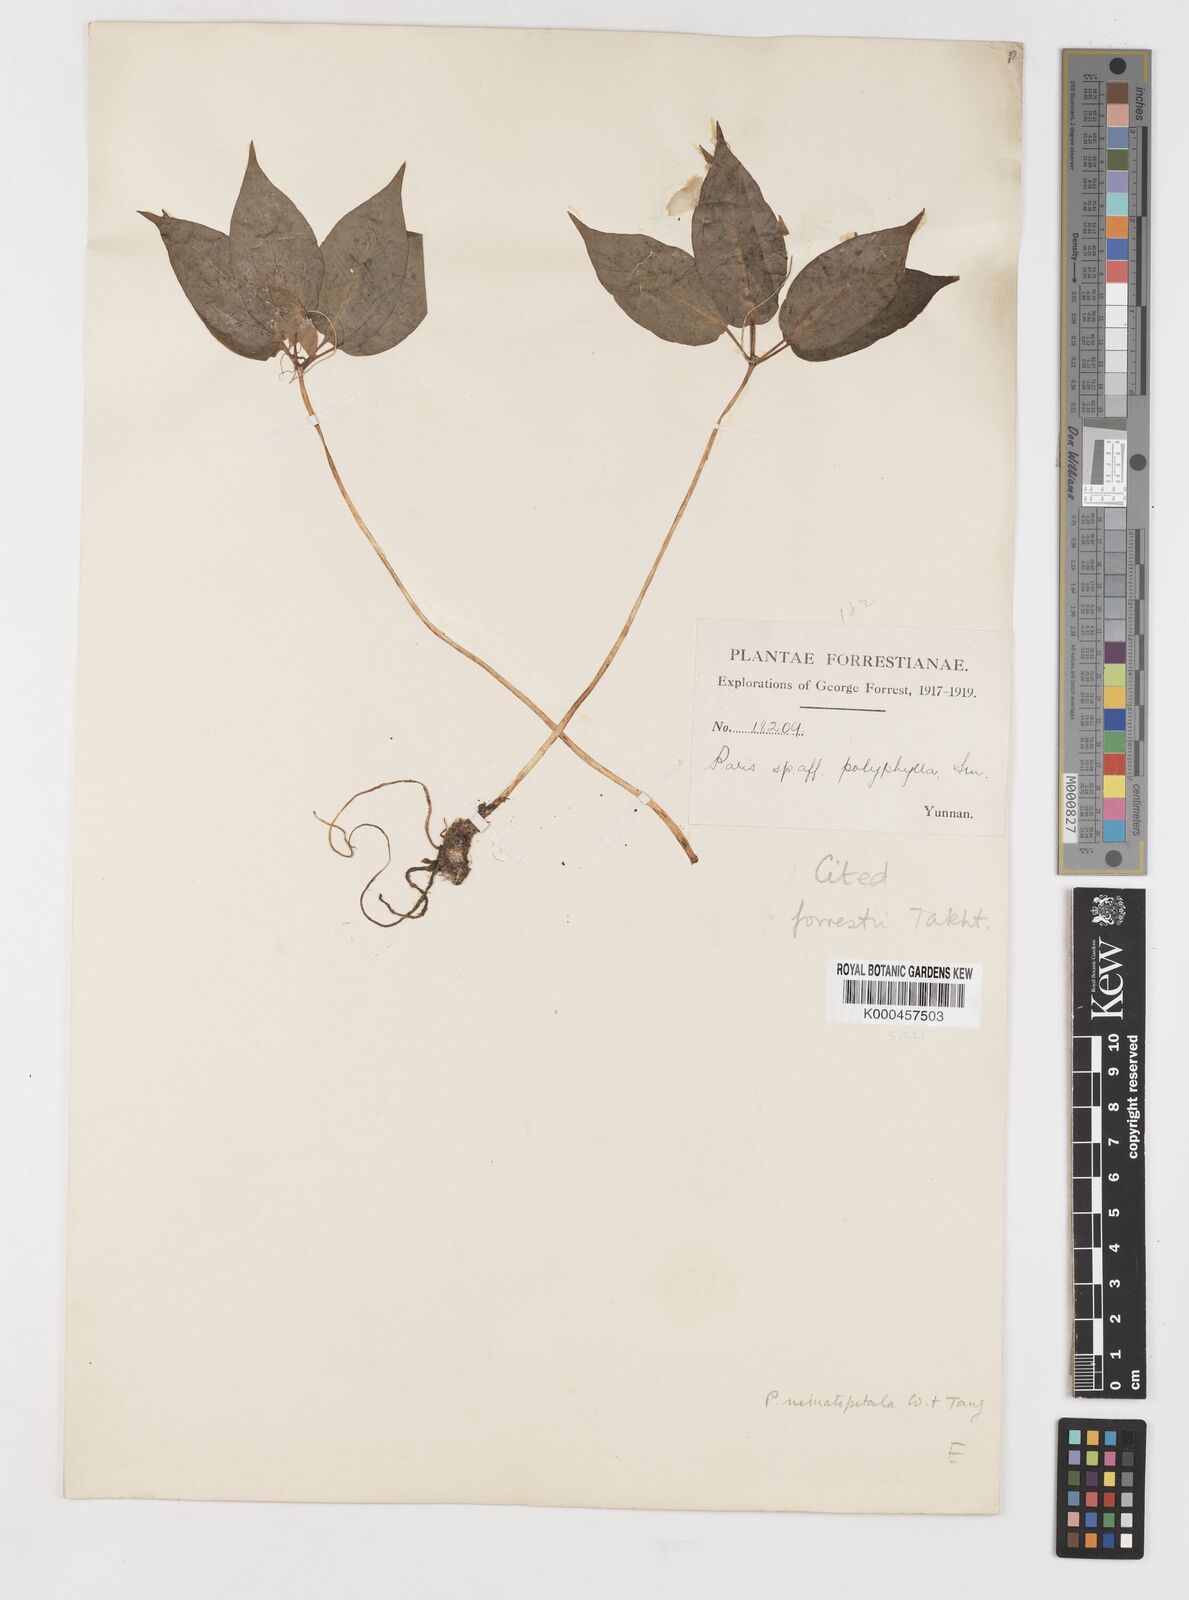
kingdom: Plantae
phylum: Tracheophyta
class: Liliopsida
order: Liliales
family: Melanthiaceae
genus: Paris
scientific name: Paris forrestii
